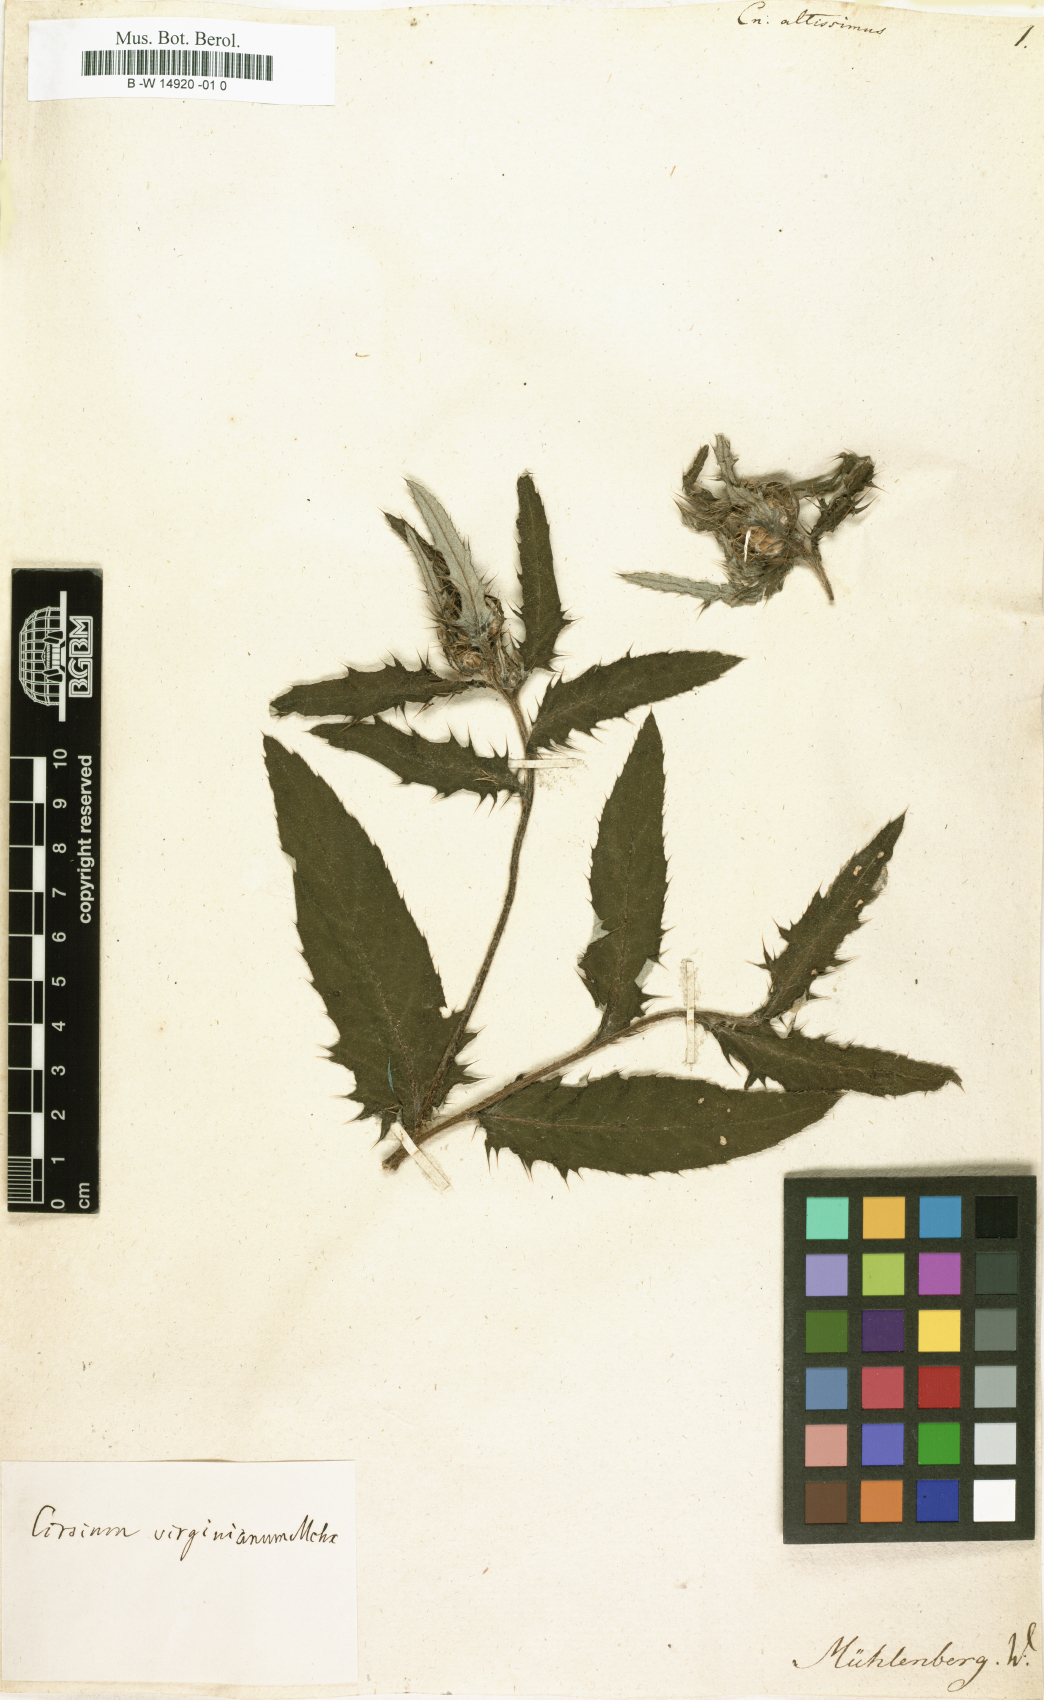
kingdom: Plantae
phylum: Tracheophyta
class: Magnoliopsida
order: Asterales
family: Asteraceae
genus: Cirsium
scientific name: Cirsium altissimum
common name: Roadside thistle
